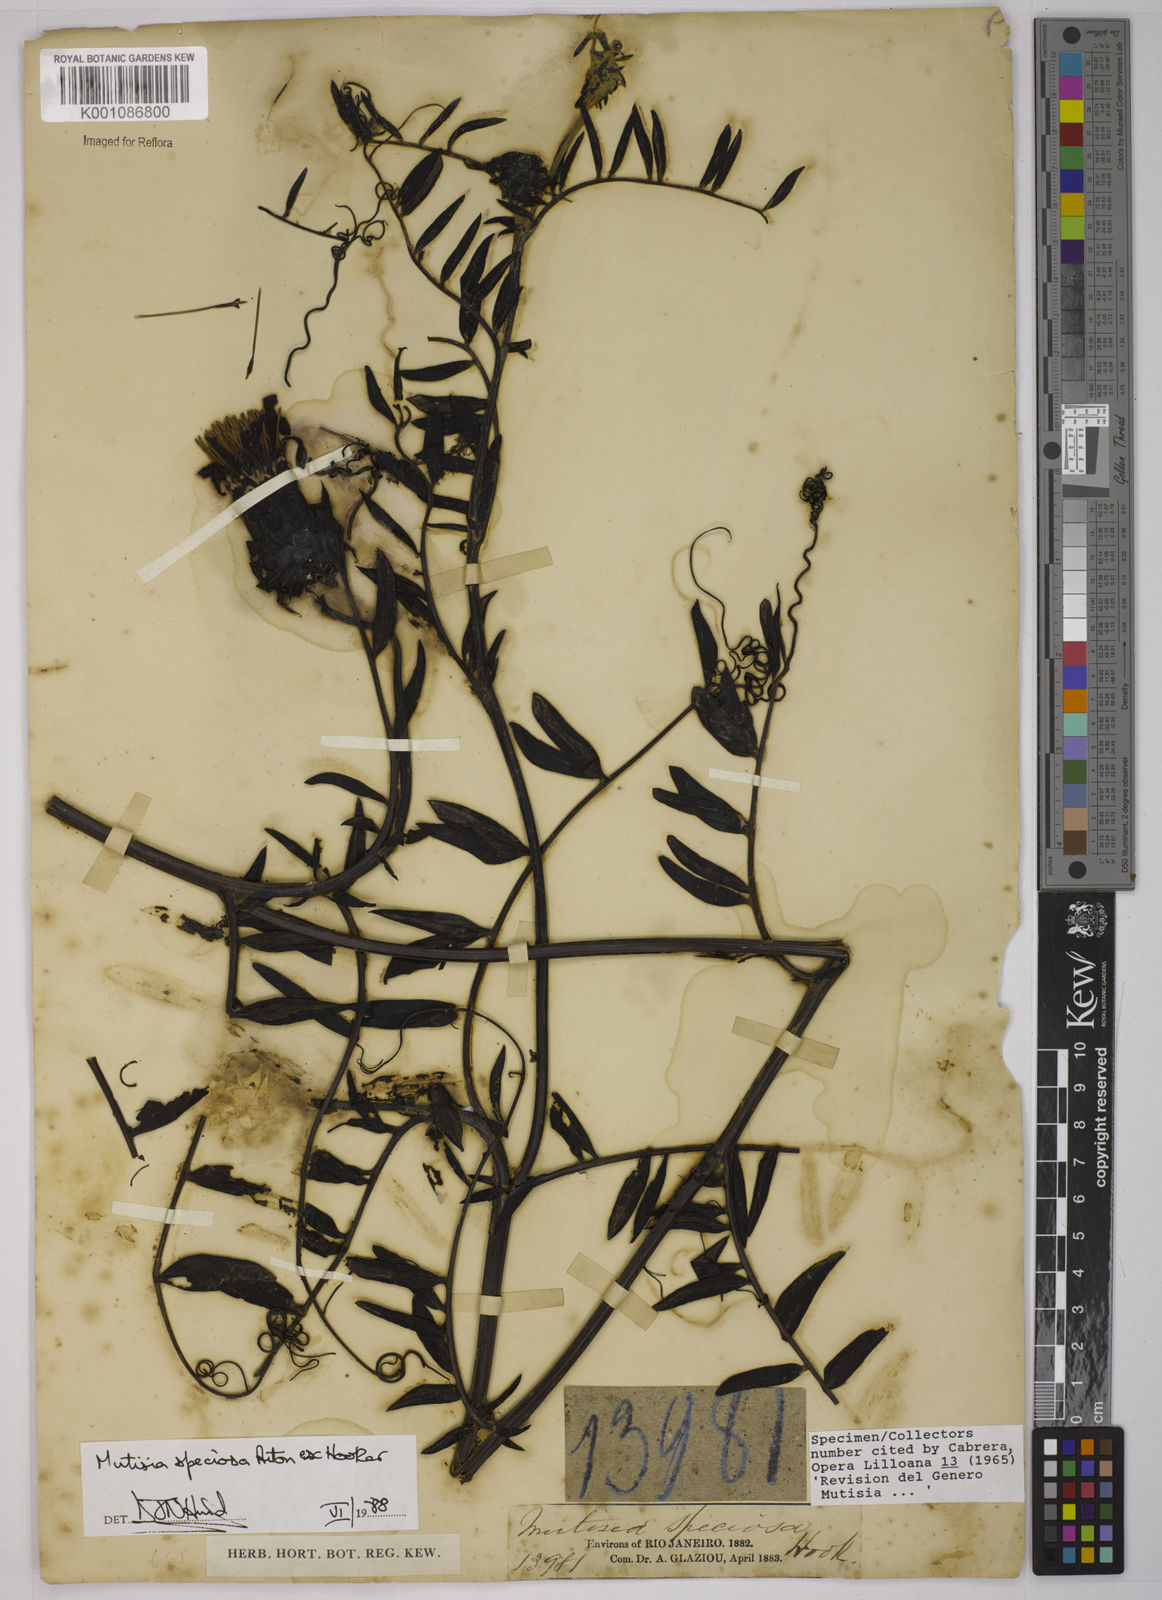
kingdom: Plantae
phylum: Tracheophyta
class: Magnoliopsida
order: Asterales
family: Asteraceae
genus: Mutisia
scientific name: Mutisia speciosa
